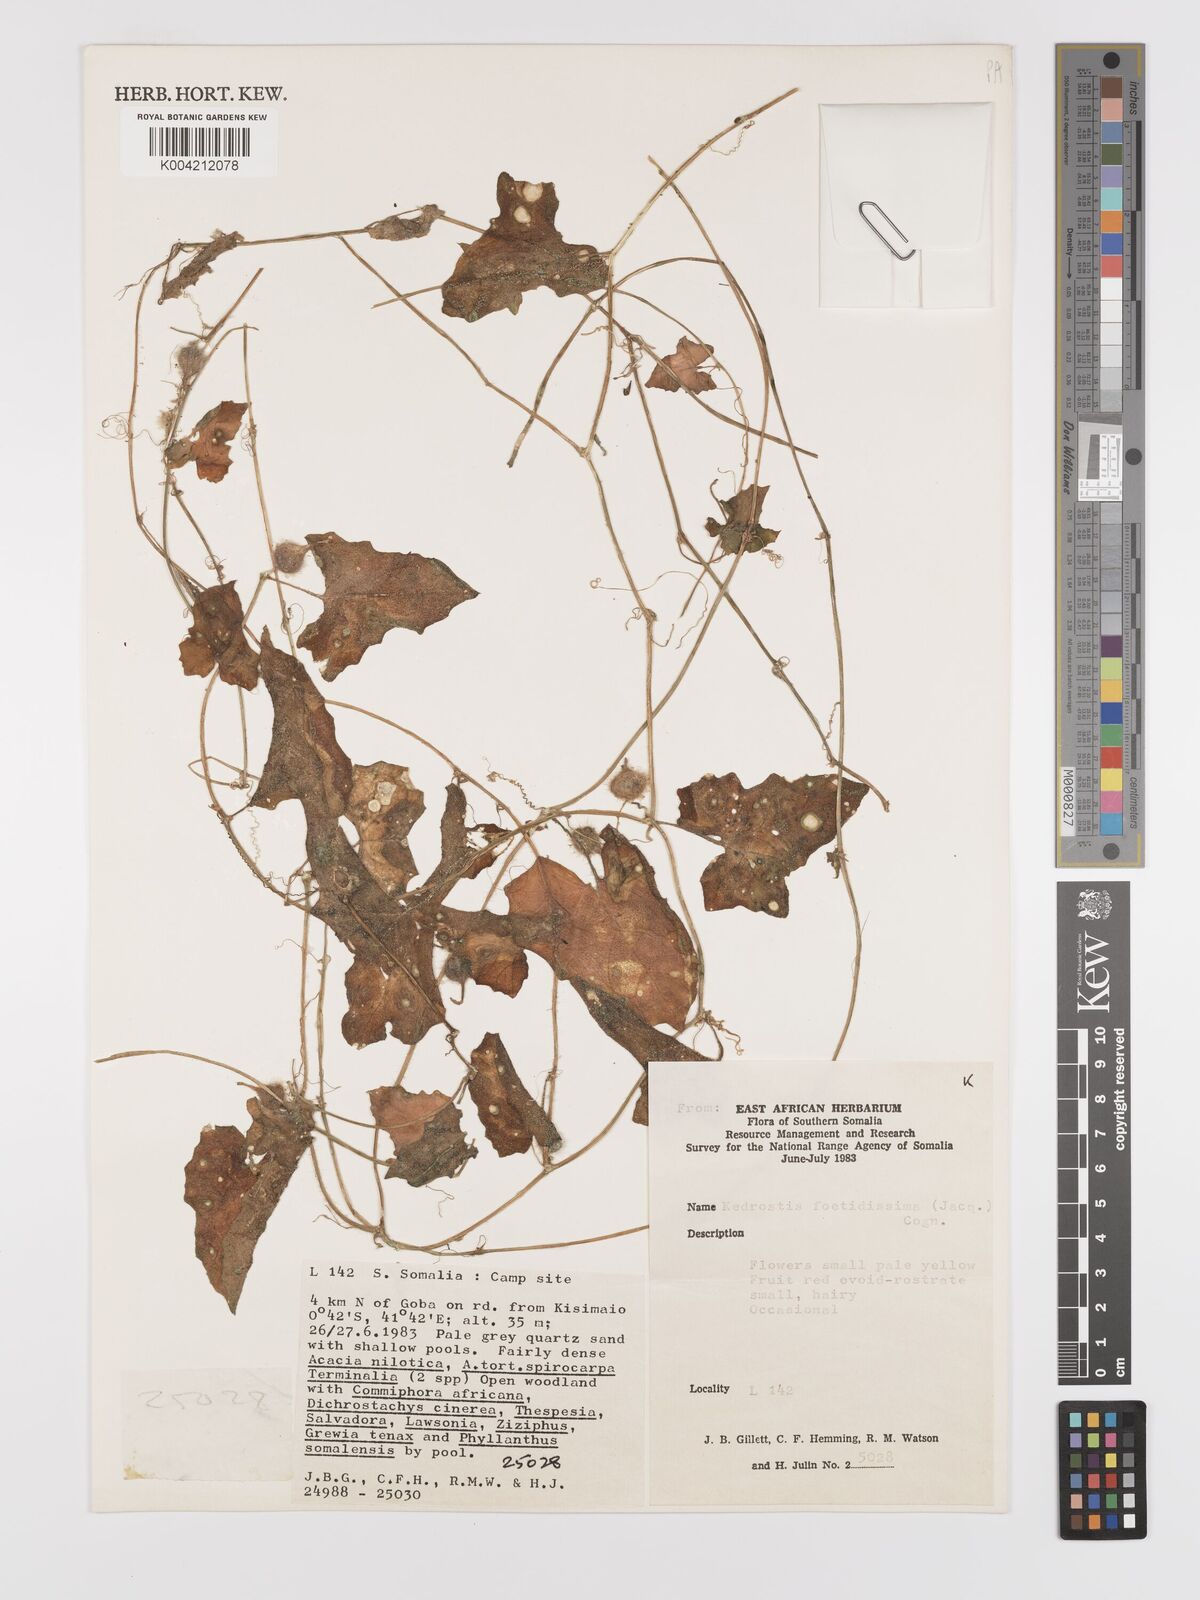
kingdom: Plantae
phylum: Tracheophyta
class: Magnoliopsida
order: Cucurbitales
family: Cucurbitaceae
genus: Kedrostis
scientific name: Kedrostis foetidissima
